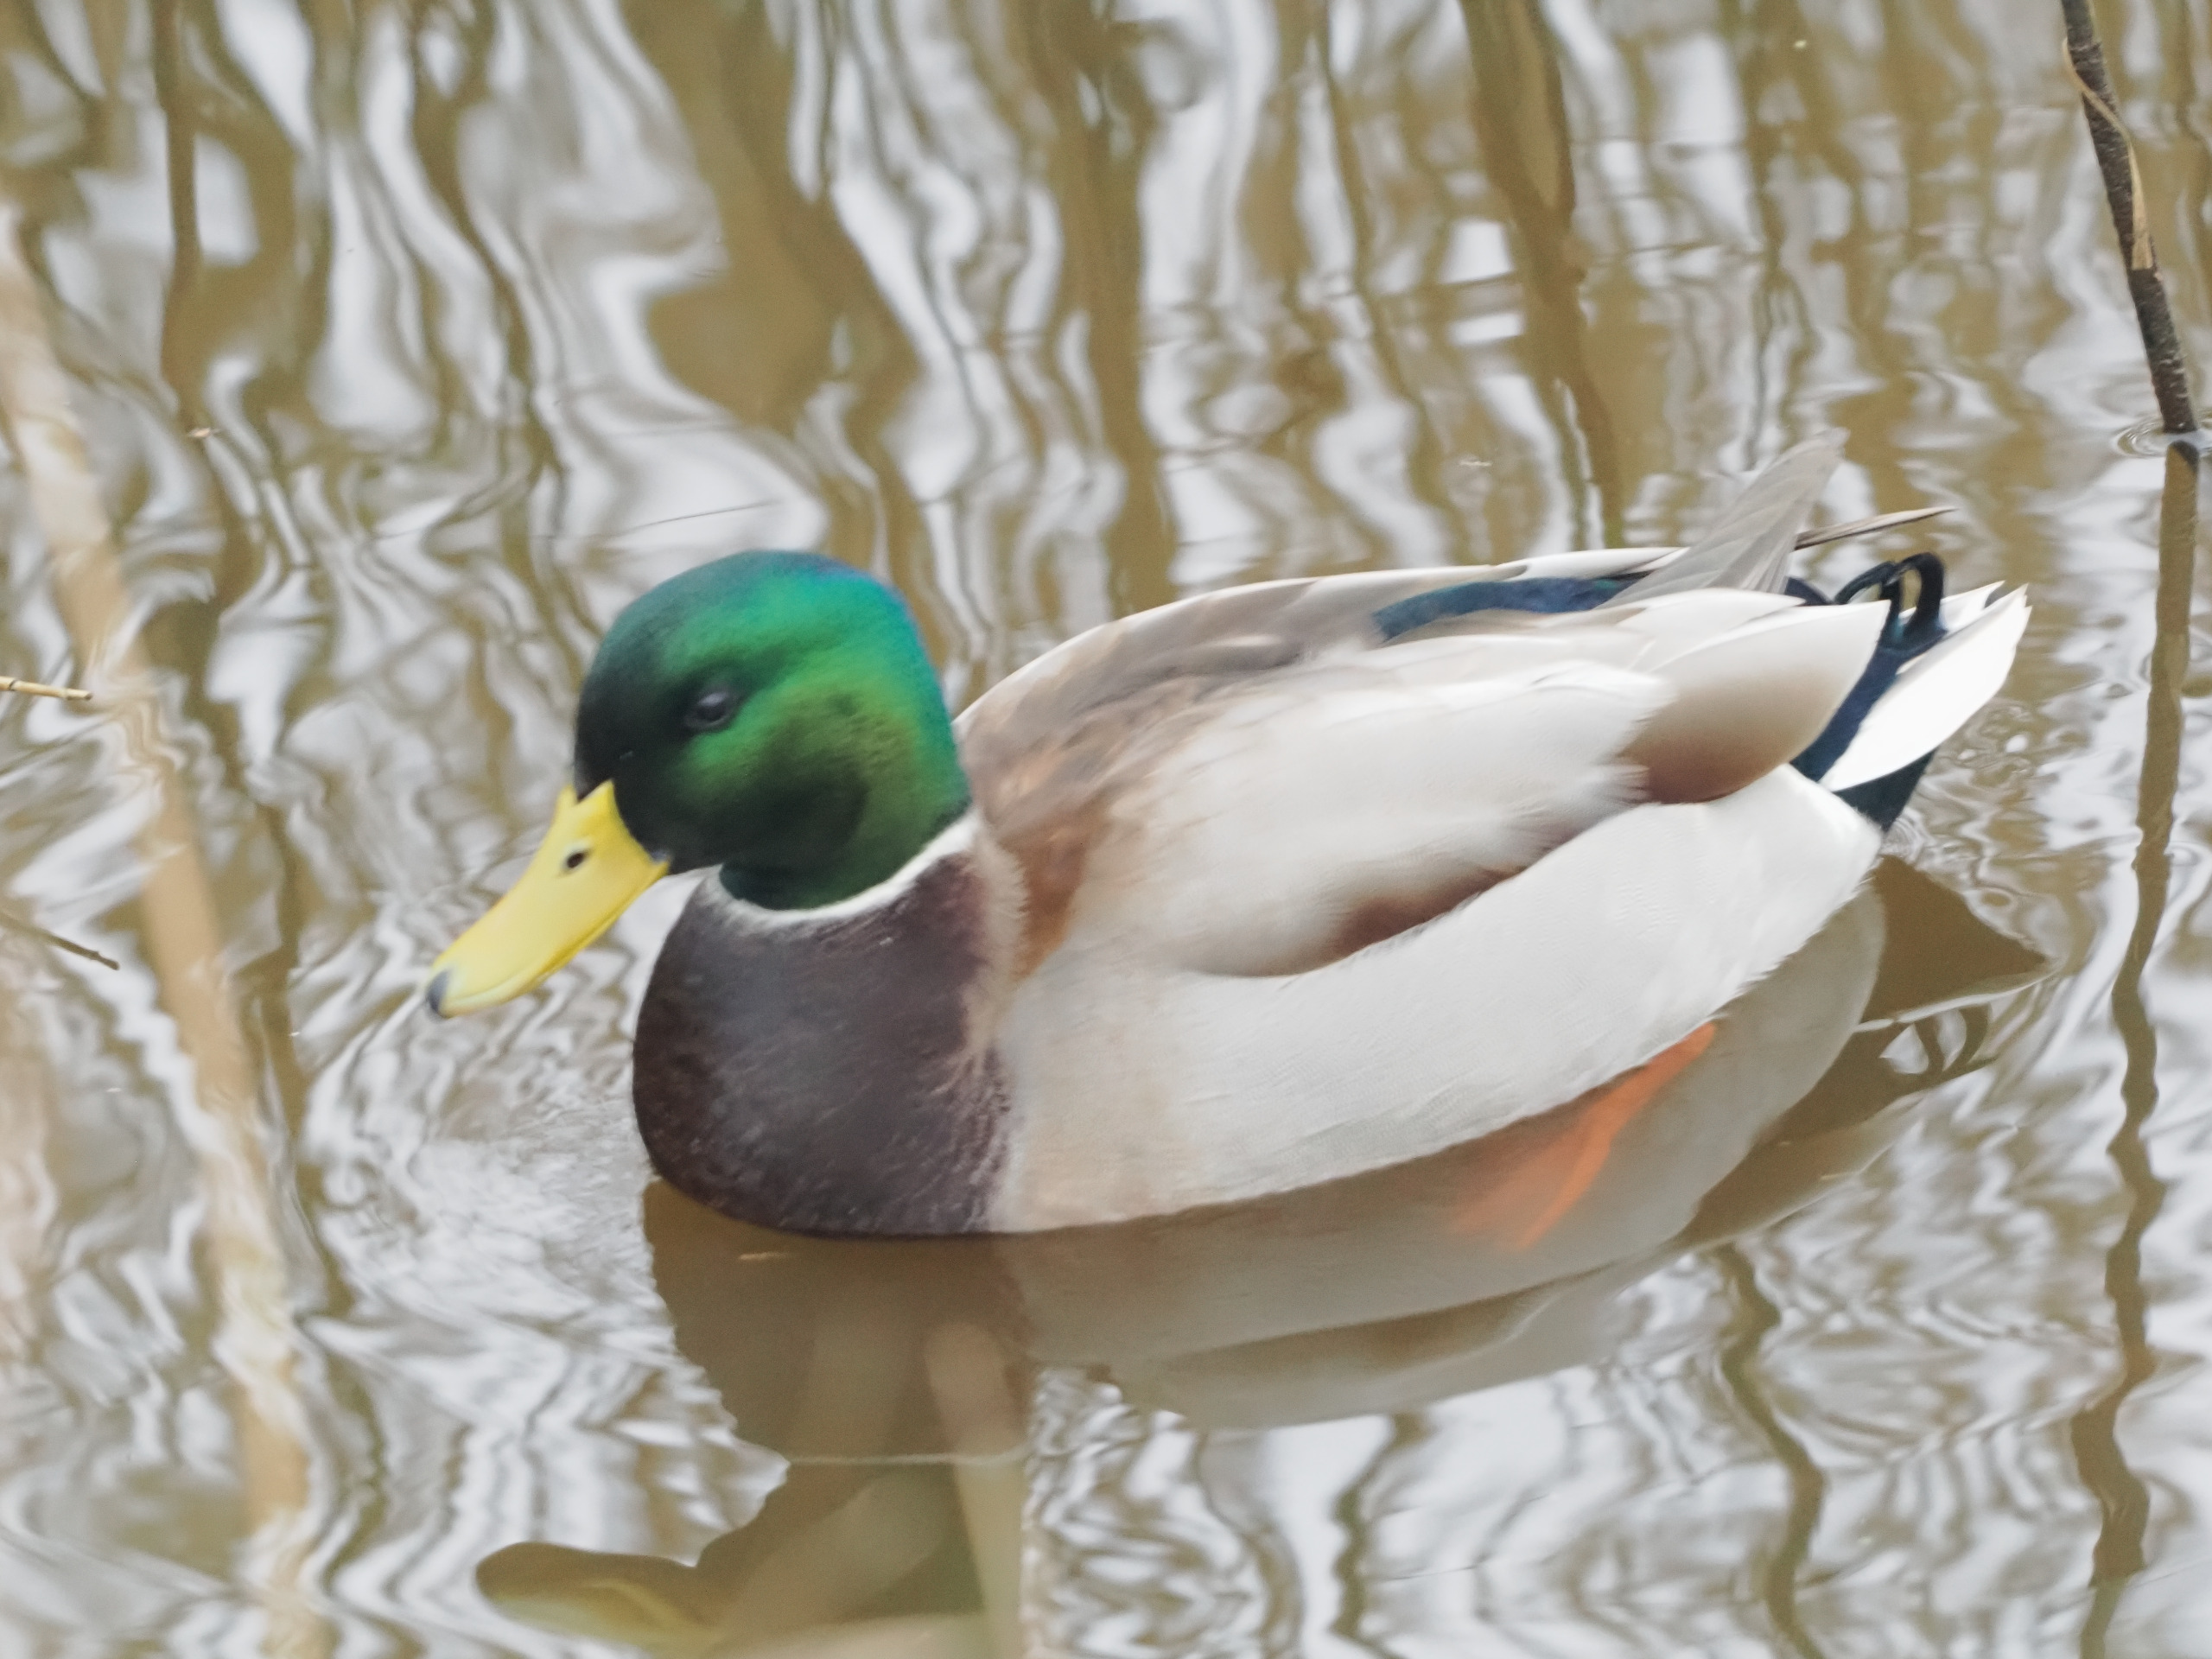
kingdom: Animalia
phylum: Chordata
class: Aves
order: Anseriformes
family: Anatidae
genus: Anas
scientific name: Anas platyrhynchos
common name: Gråand
